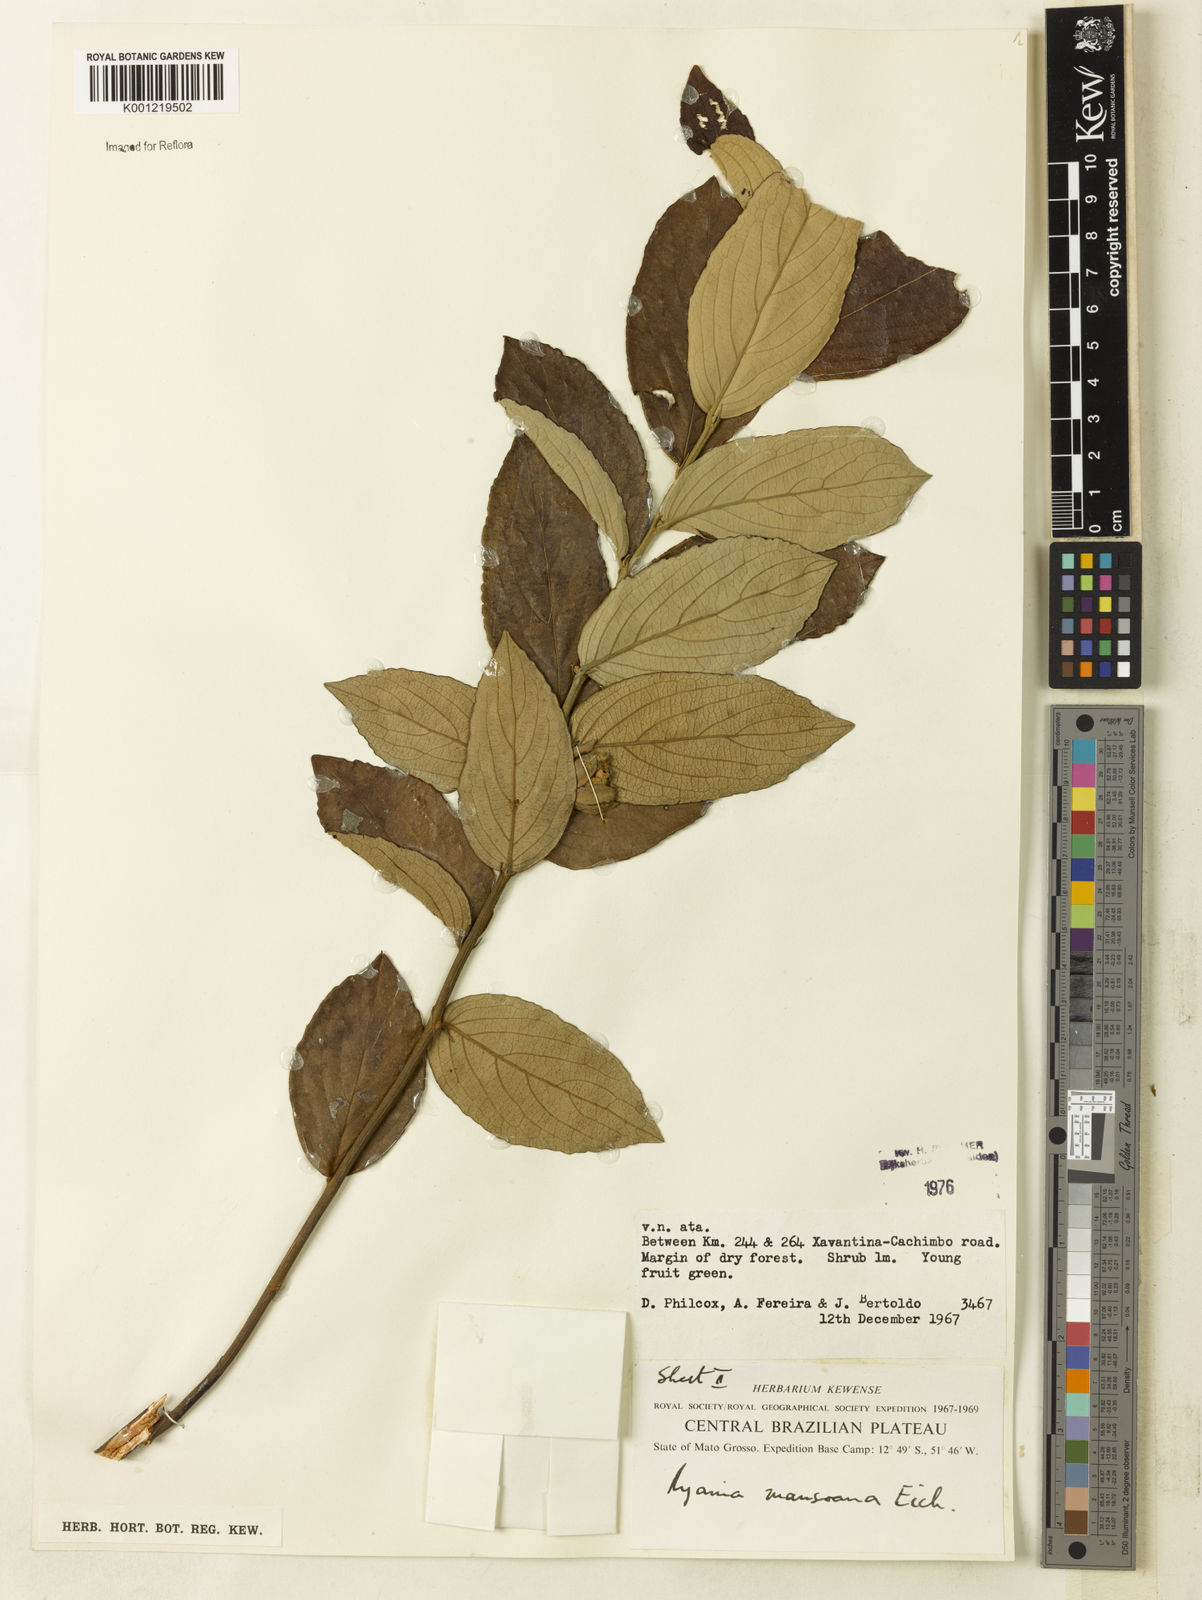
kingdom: Plantae
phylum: Tracheophyta
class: Magnoliopsida
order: Malpighiales
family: Salicaceae
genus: Ryania
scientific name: Ryania mansoana
